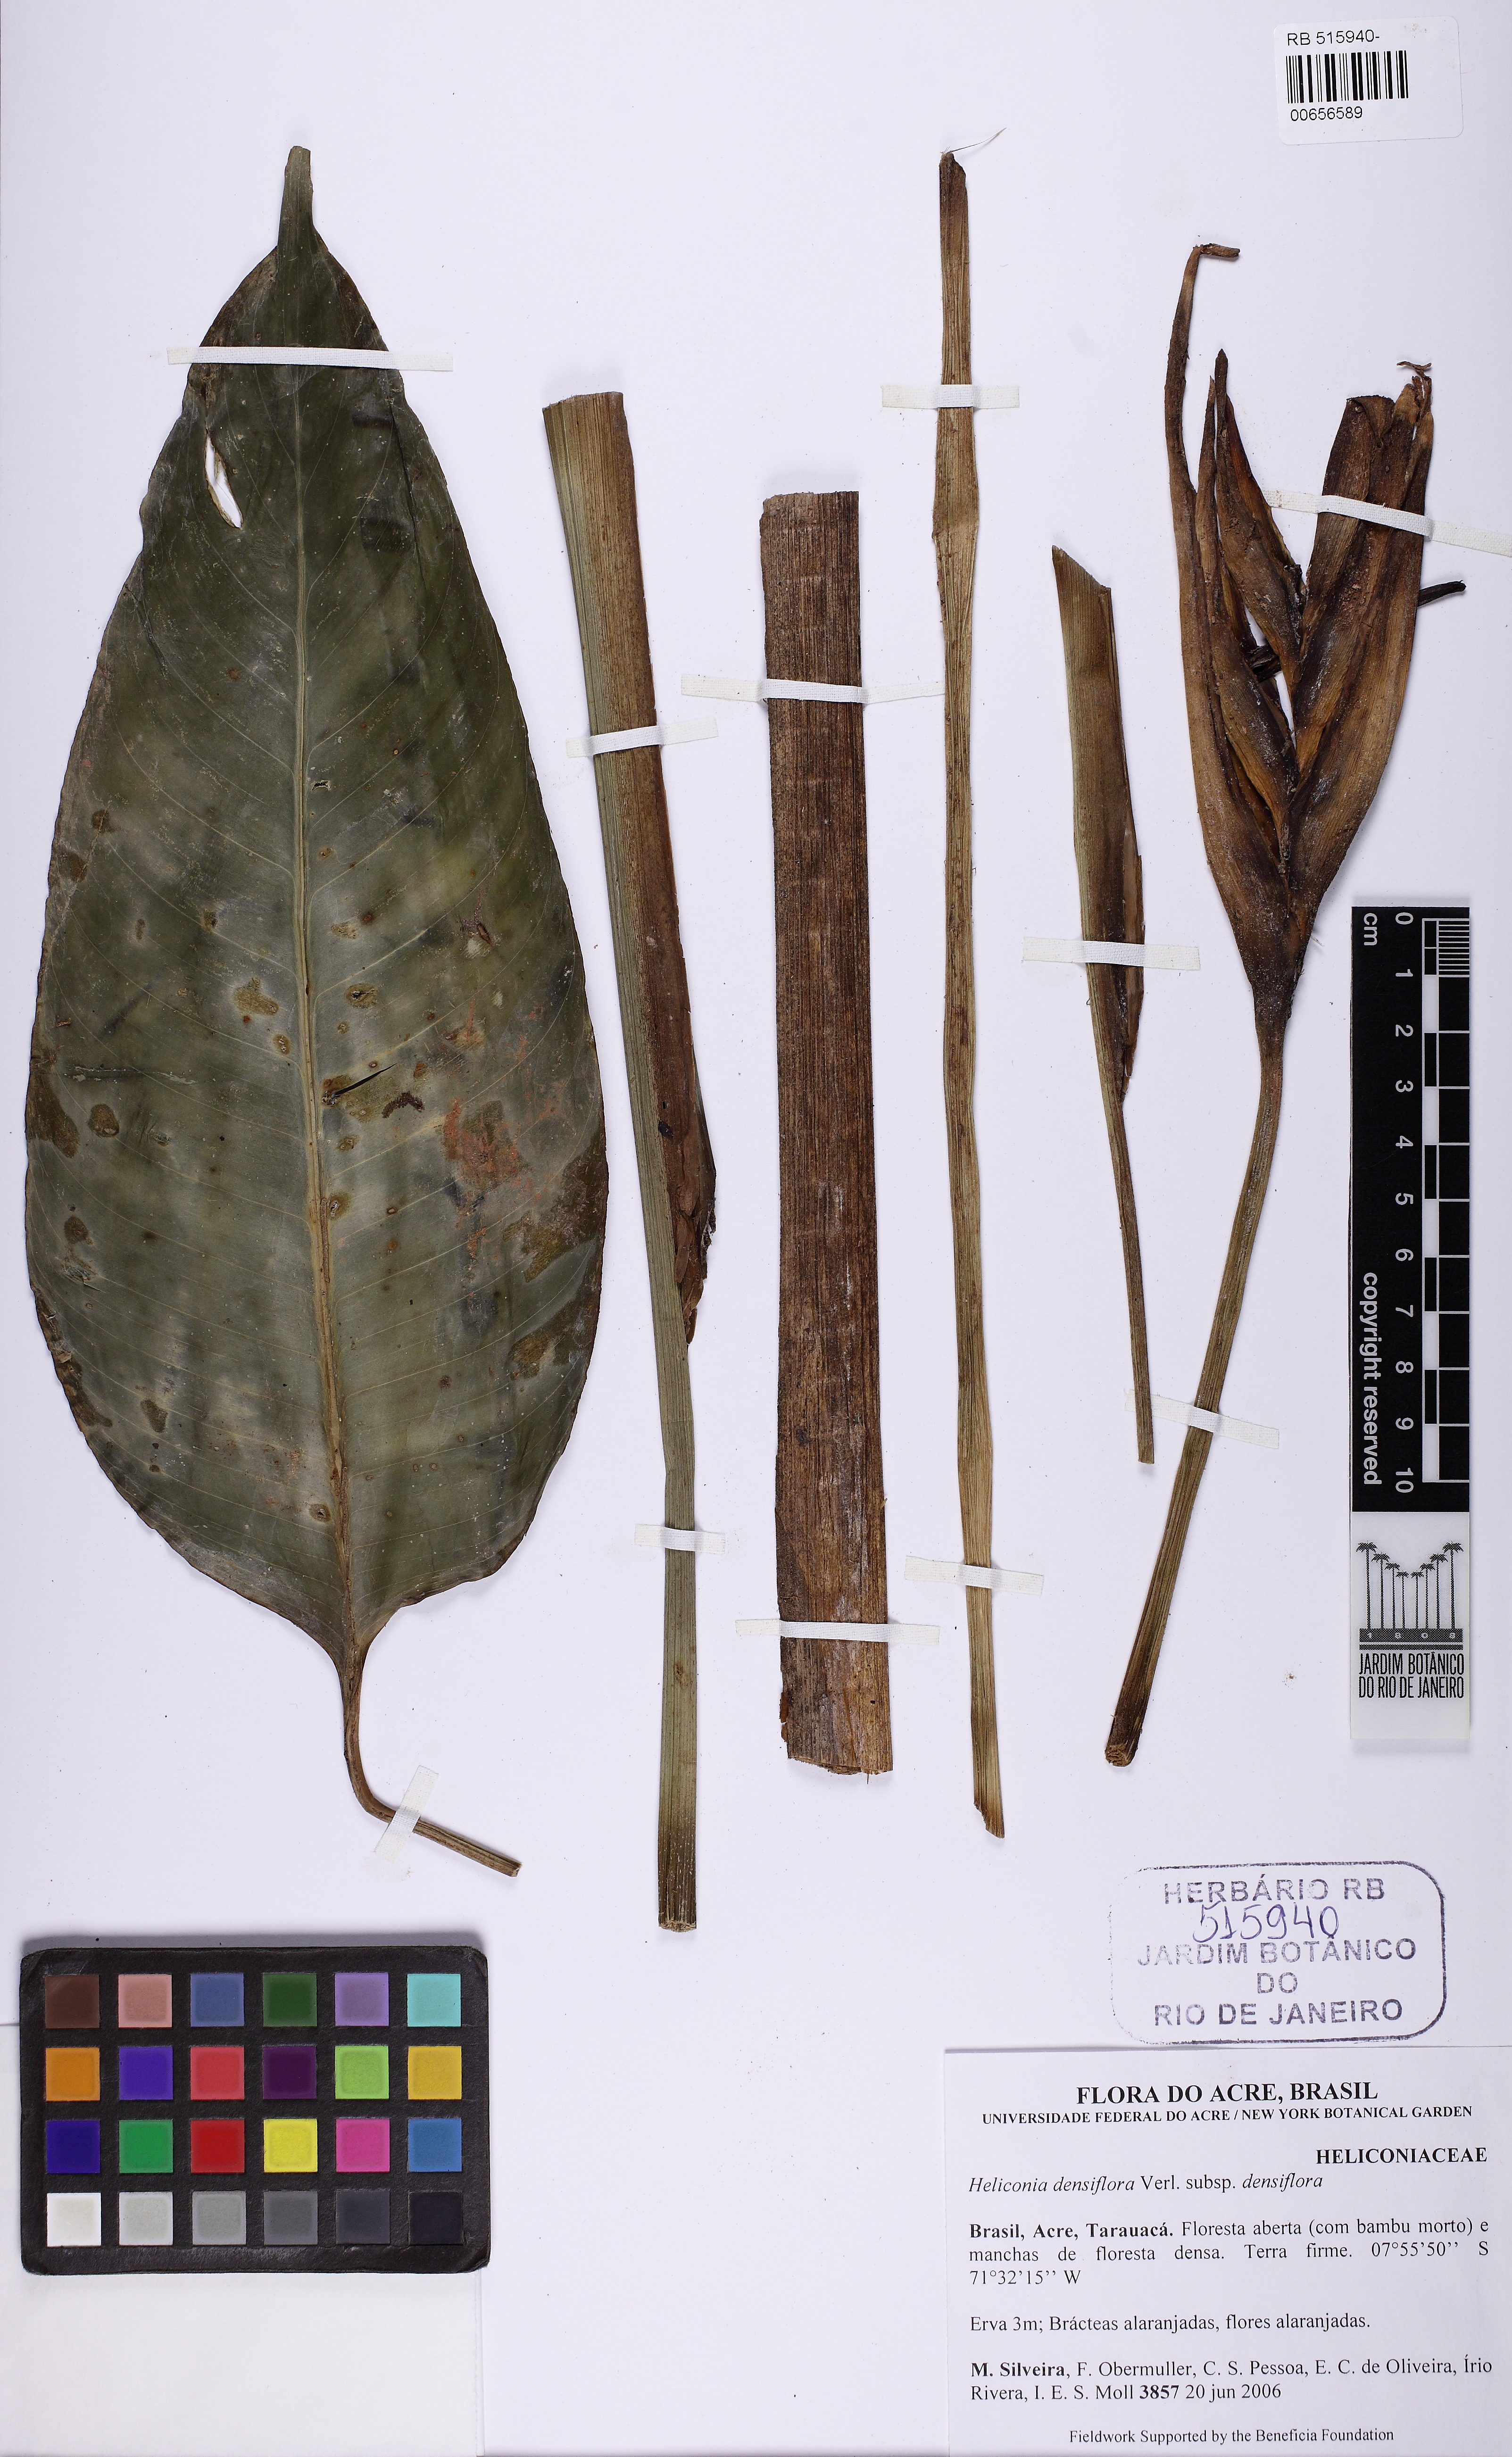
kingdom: Plantae
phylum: Tracheophyta
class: Liliopsida
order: Zingiberales
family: Heliconiaceae
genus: Heliconia
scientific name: Heliconia densiflora
